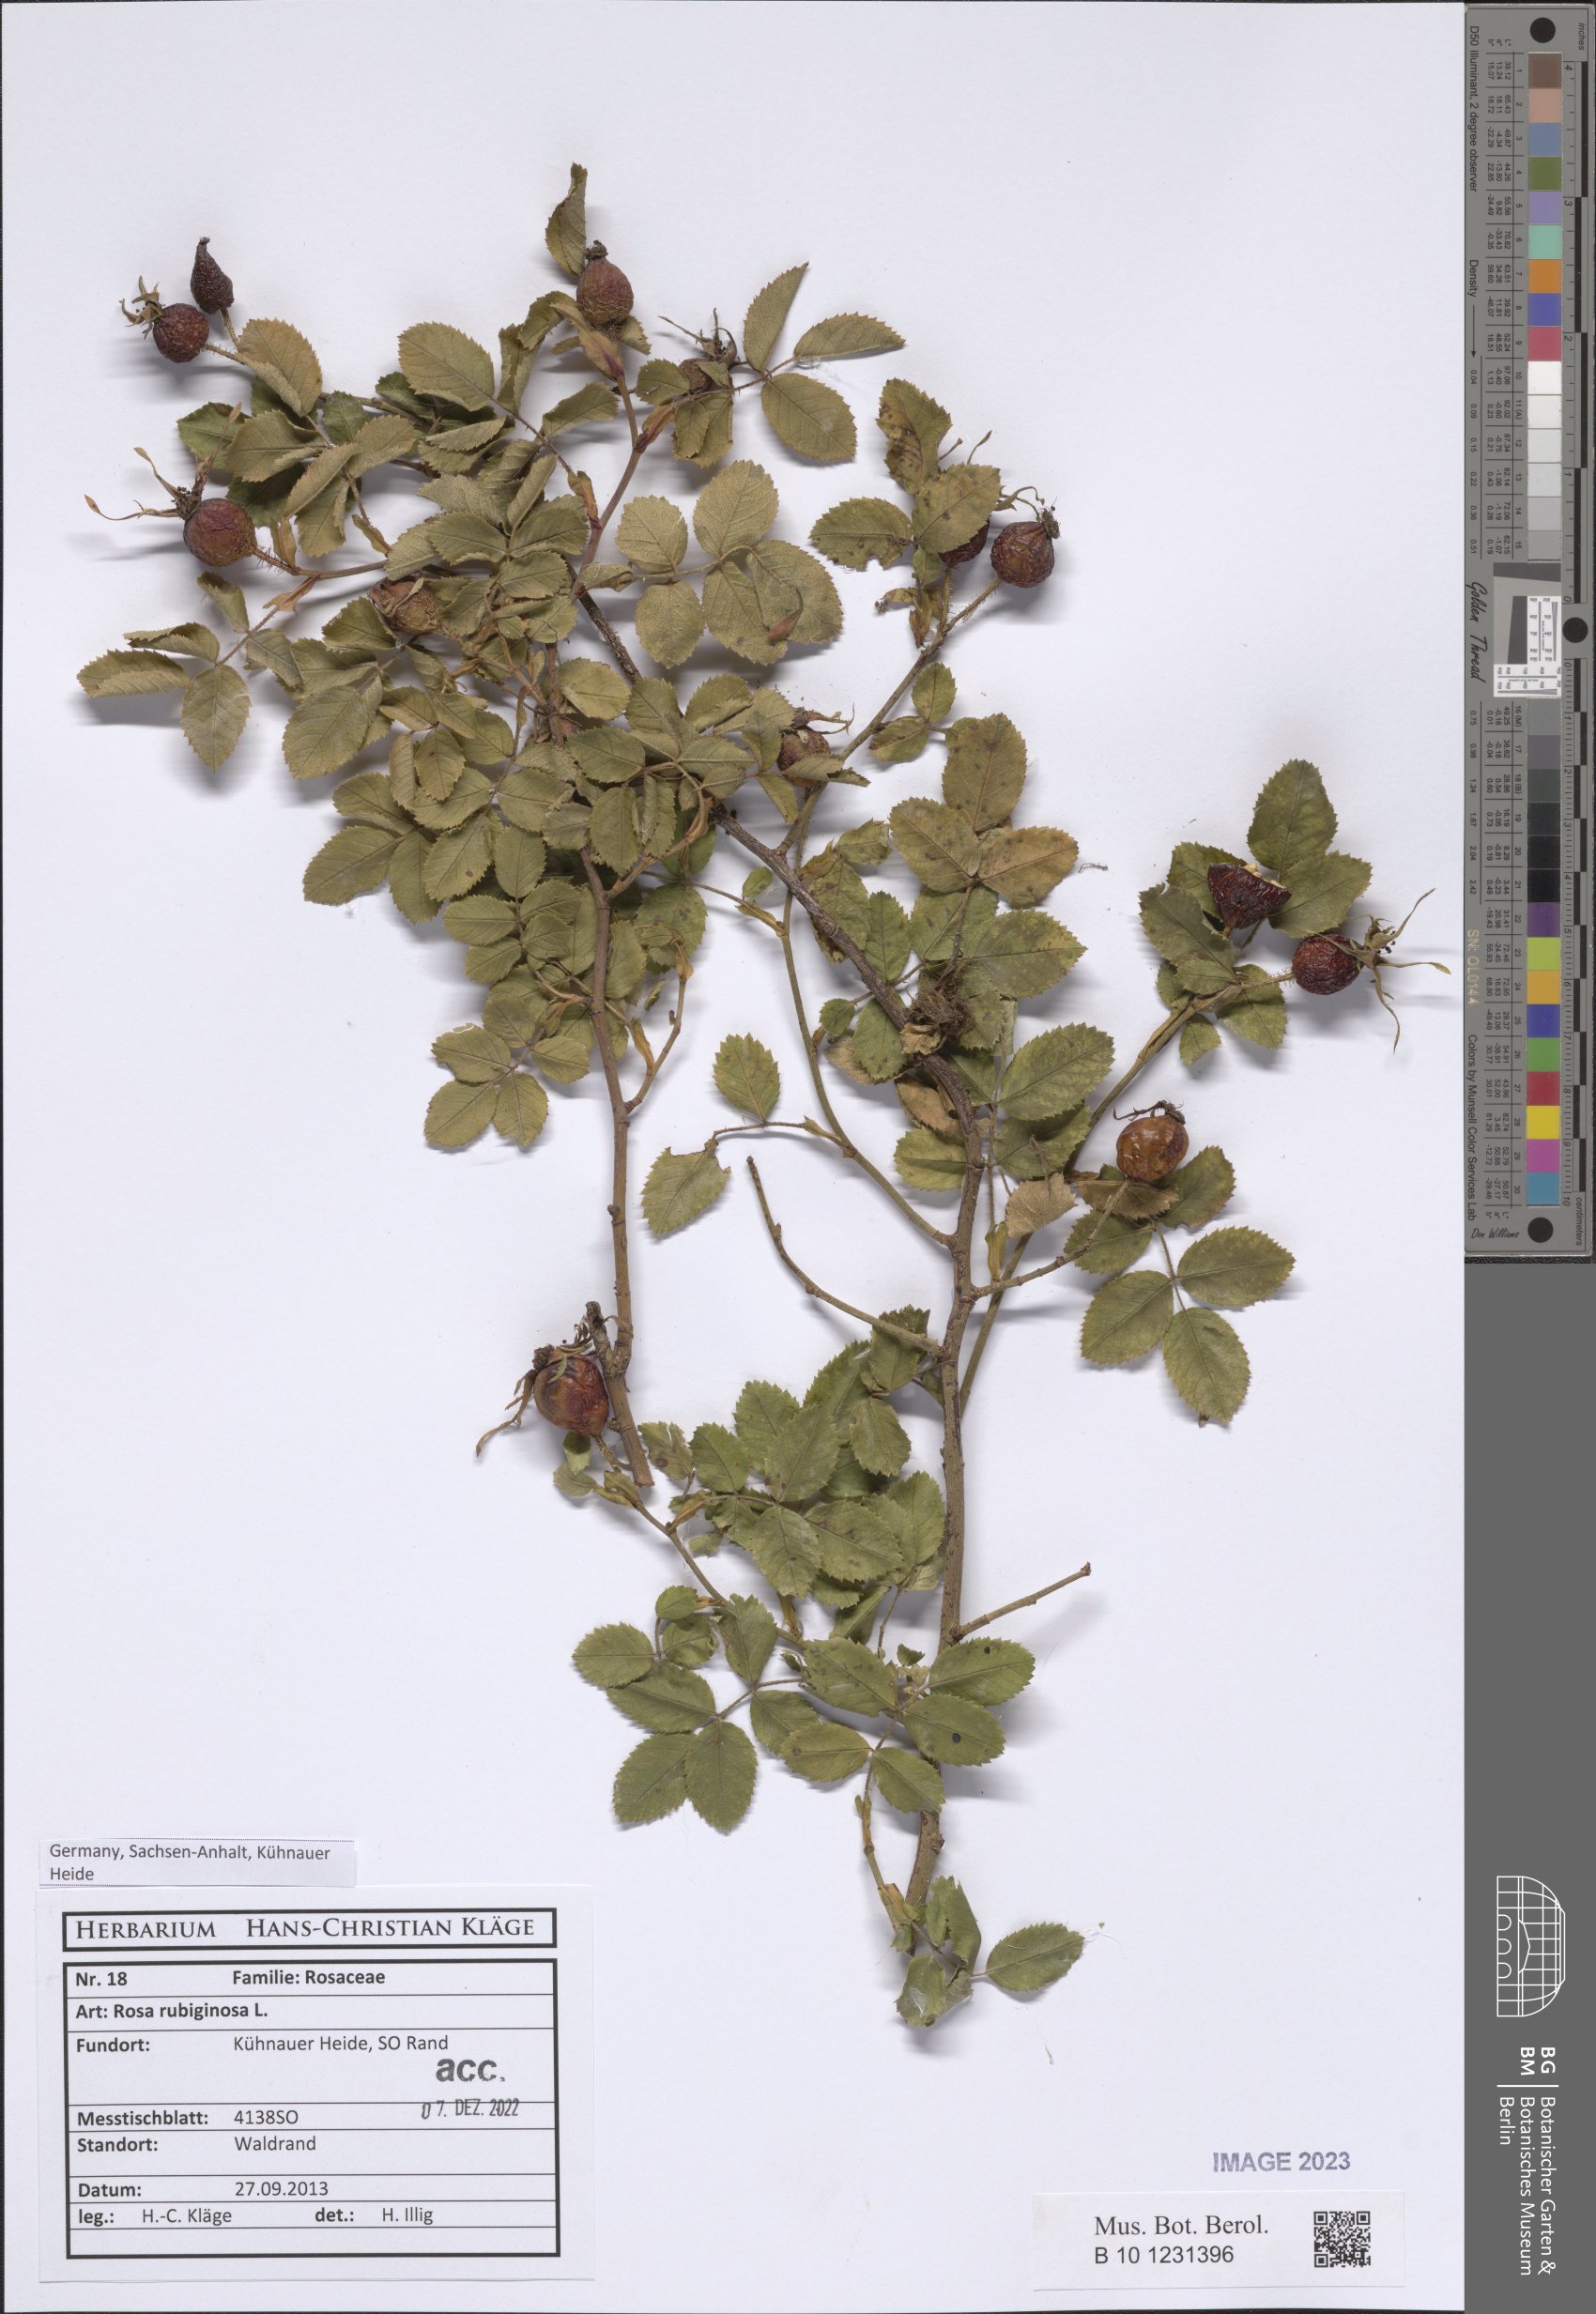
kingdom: Plantae
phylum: Tracheophyta
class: Magnoliopsida
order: Rosales
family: Rosaceae
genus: Rosa
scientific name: Rosa rubiginosa
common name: Sweet-briar
